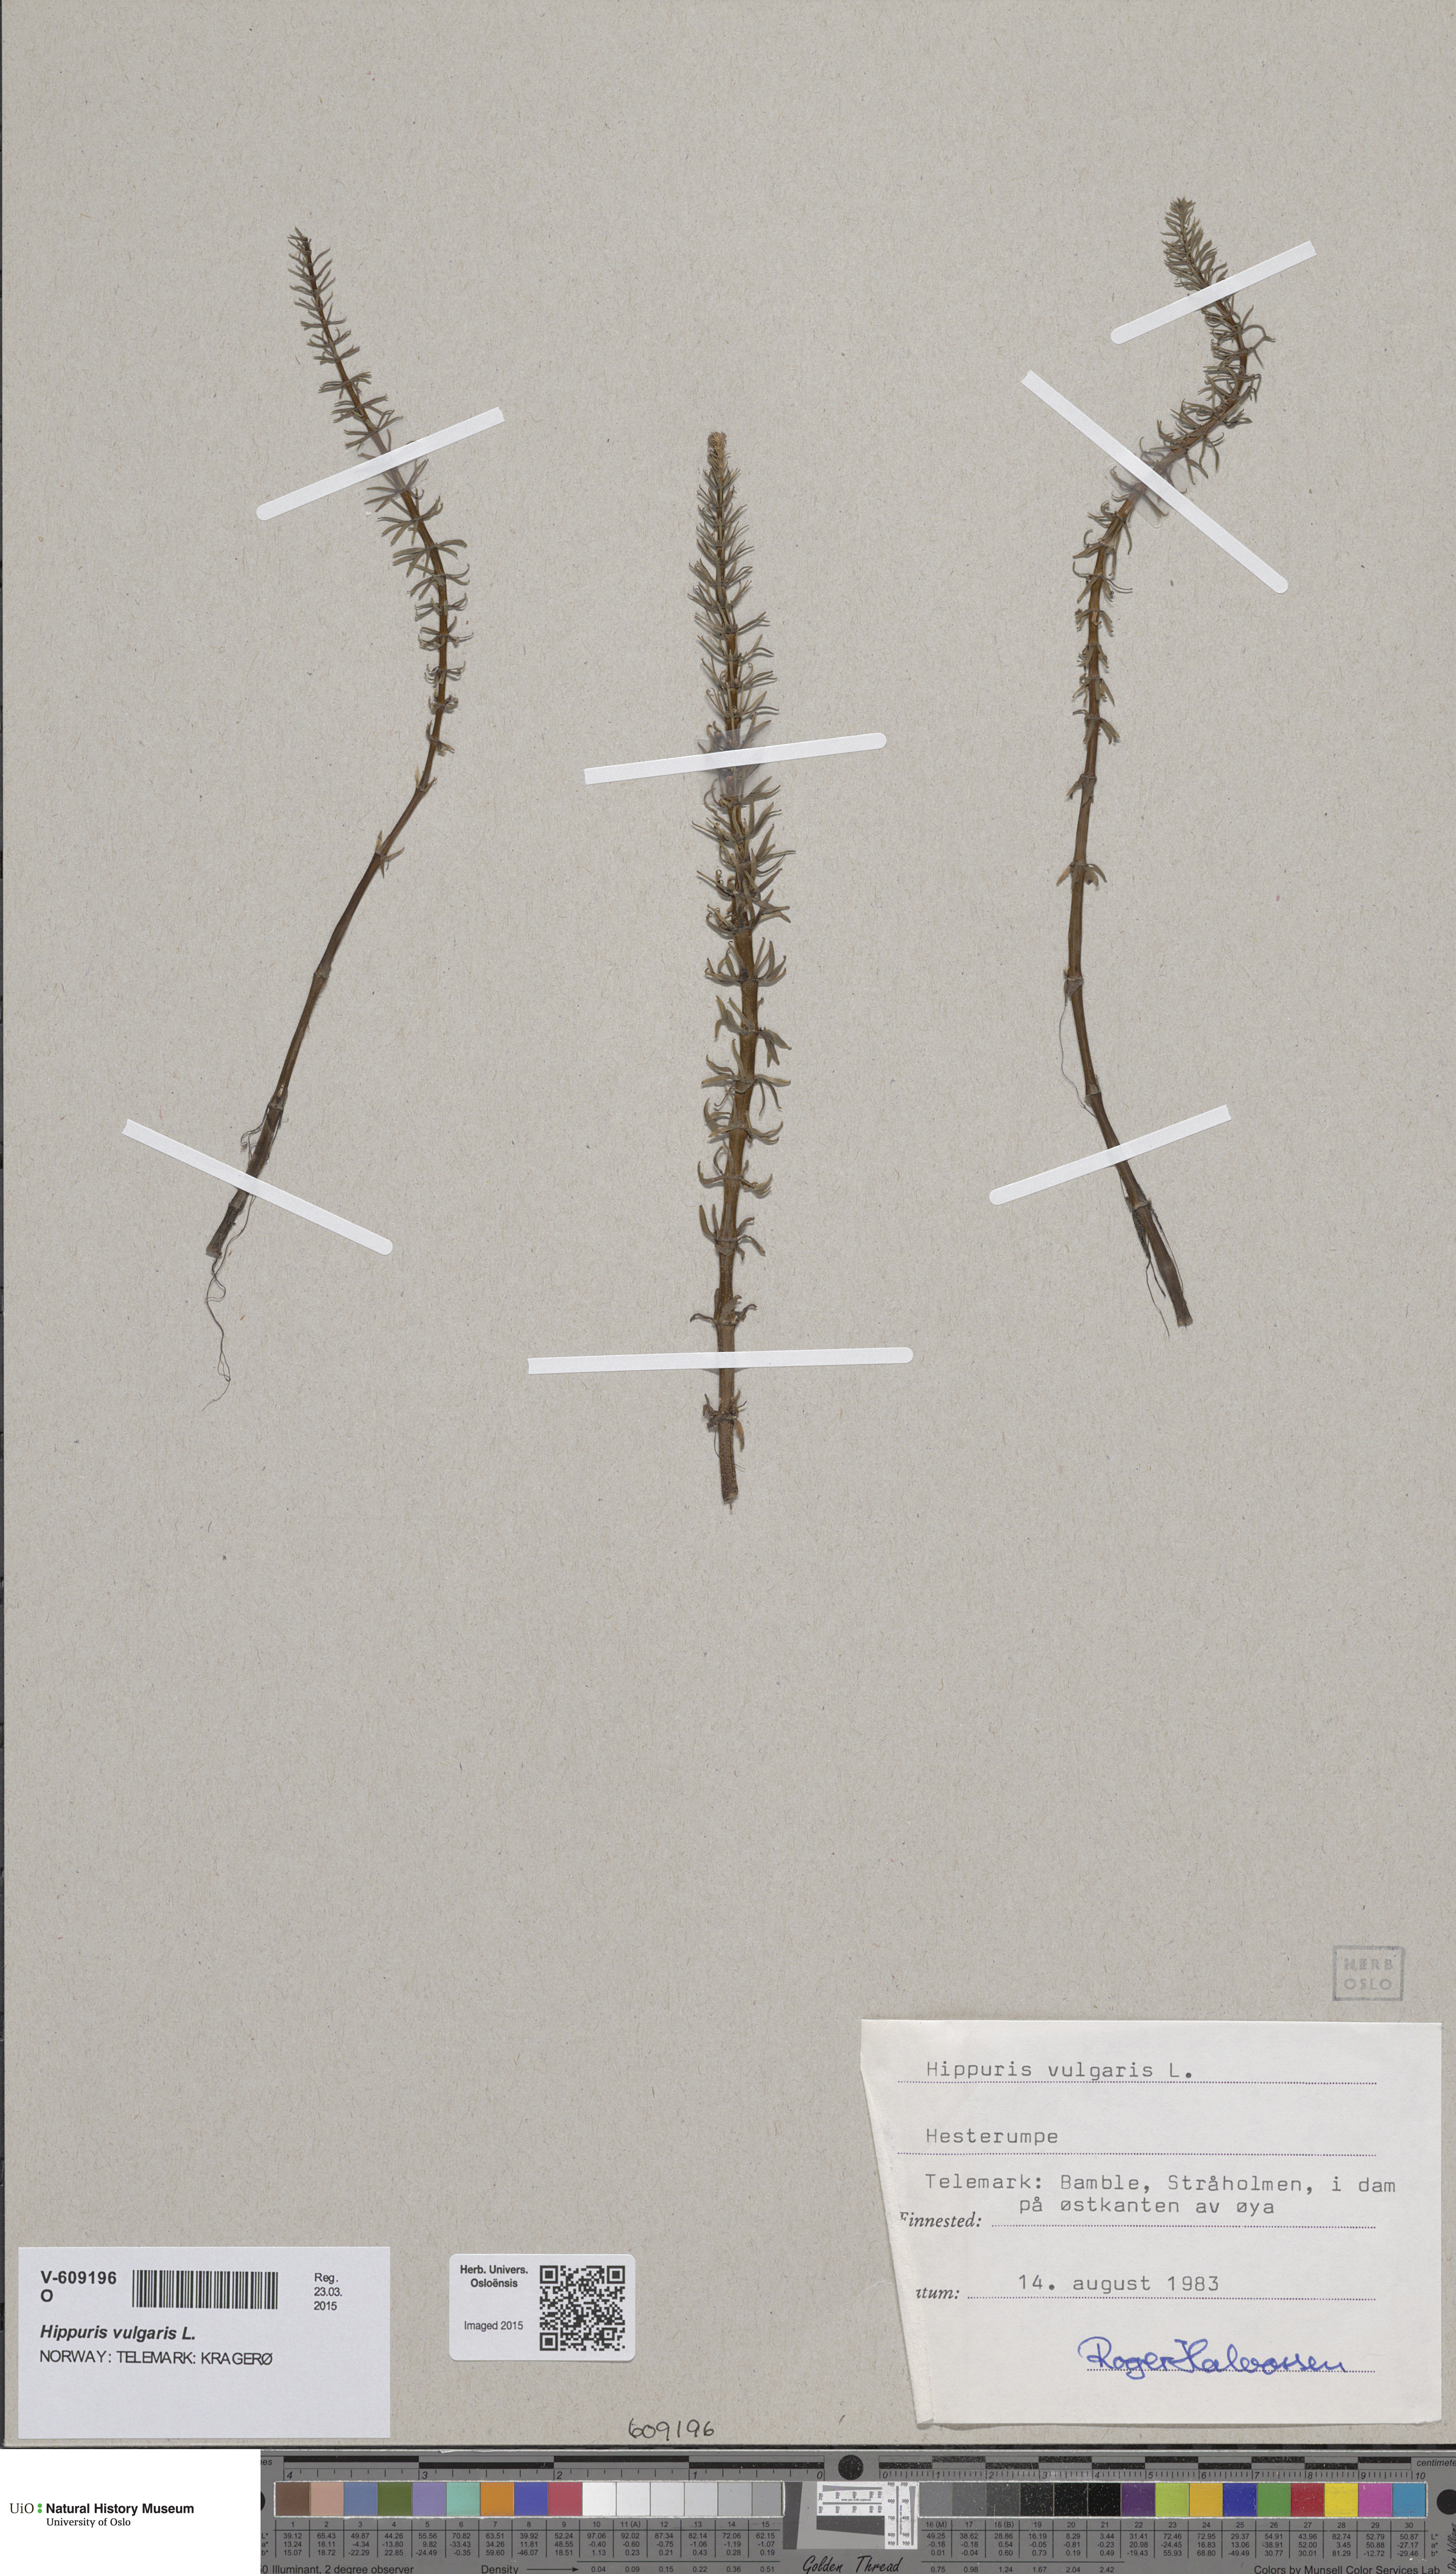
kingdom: Plantae
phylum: Tracheophyta
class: Magnoliopsida
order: Lamiales
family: Plantaginaceae
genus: Hippuris
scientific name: Hippuris vulgaris
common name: Mare's-tail
